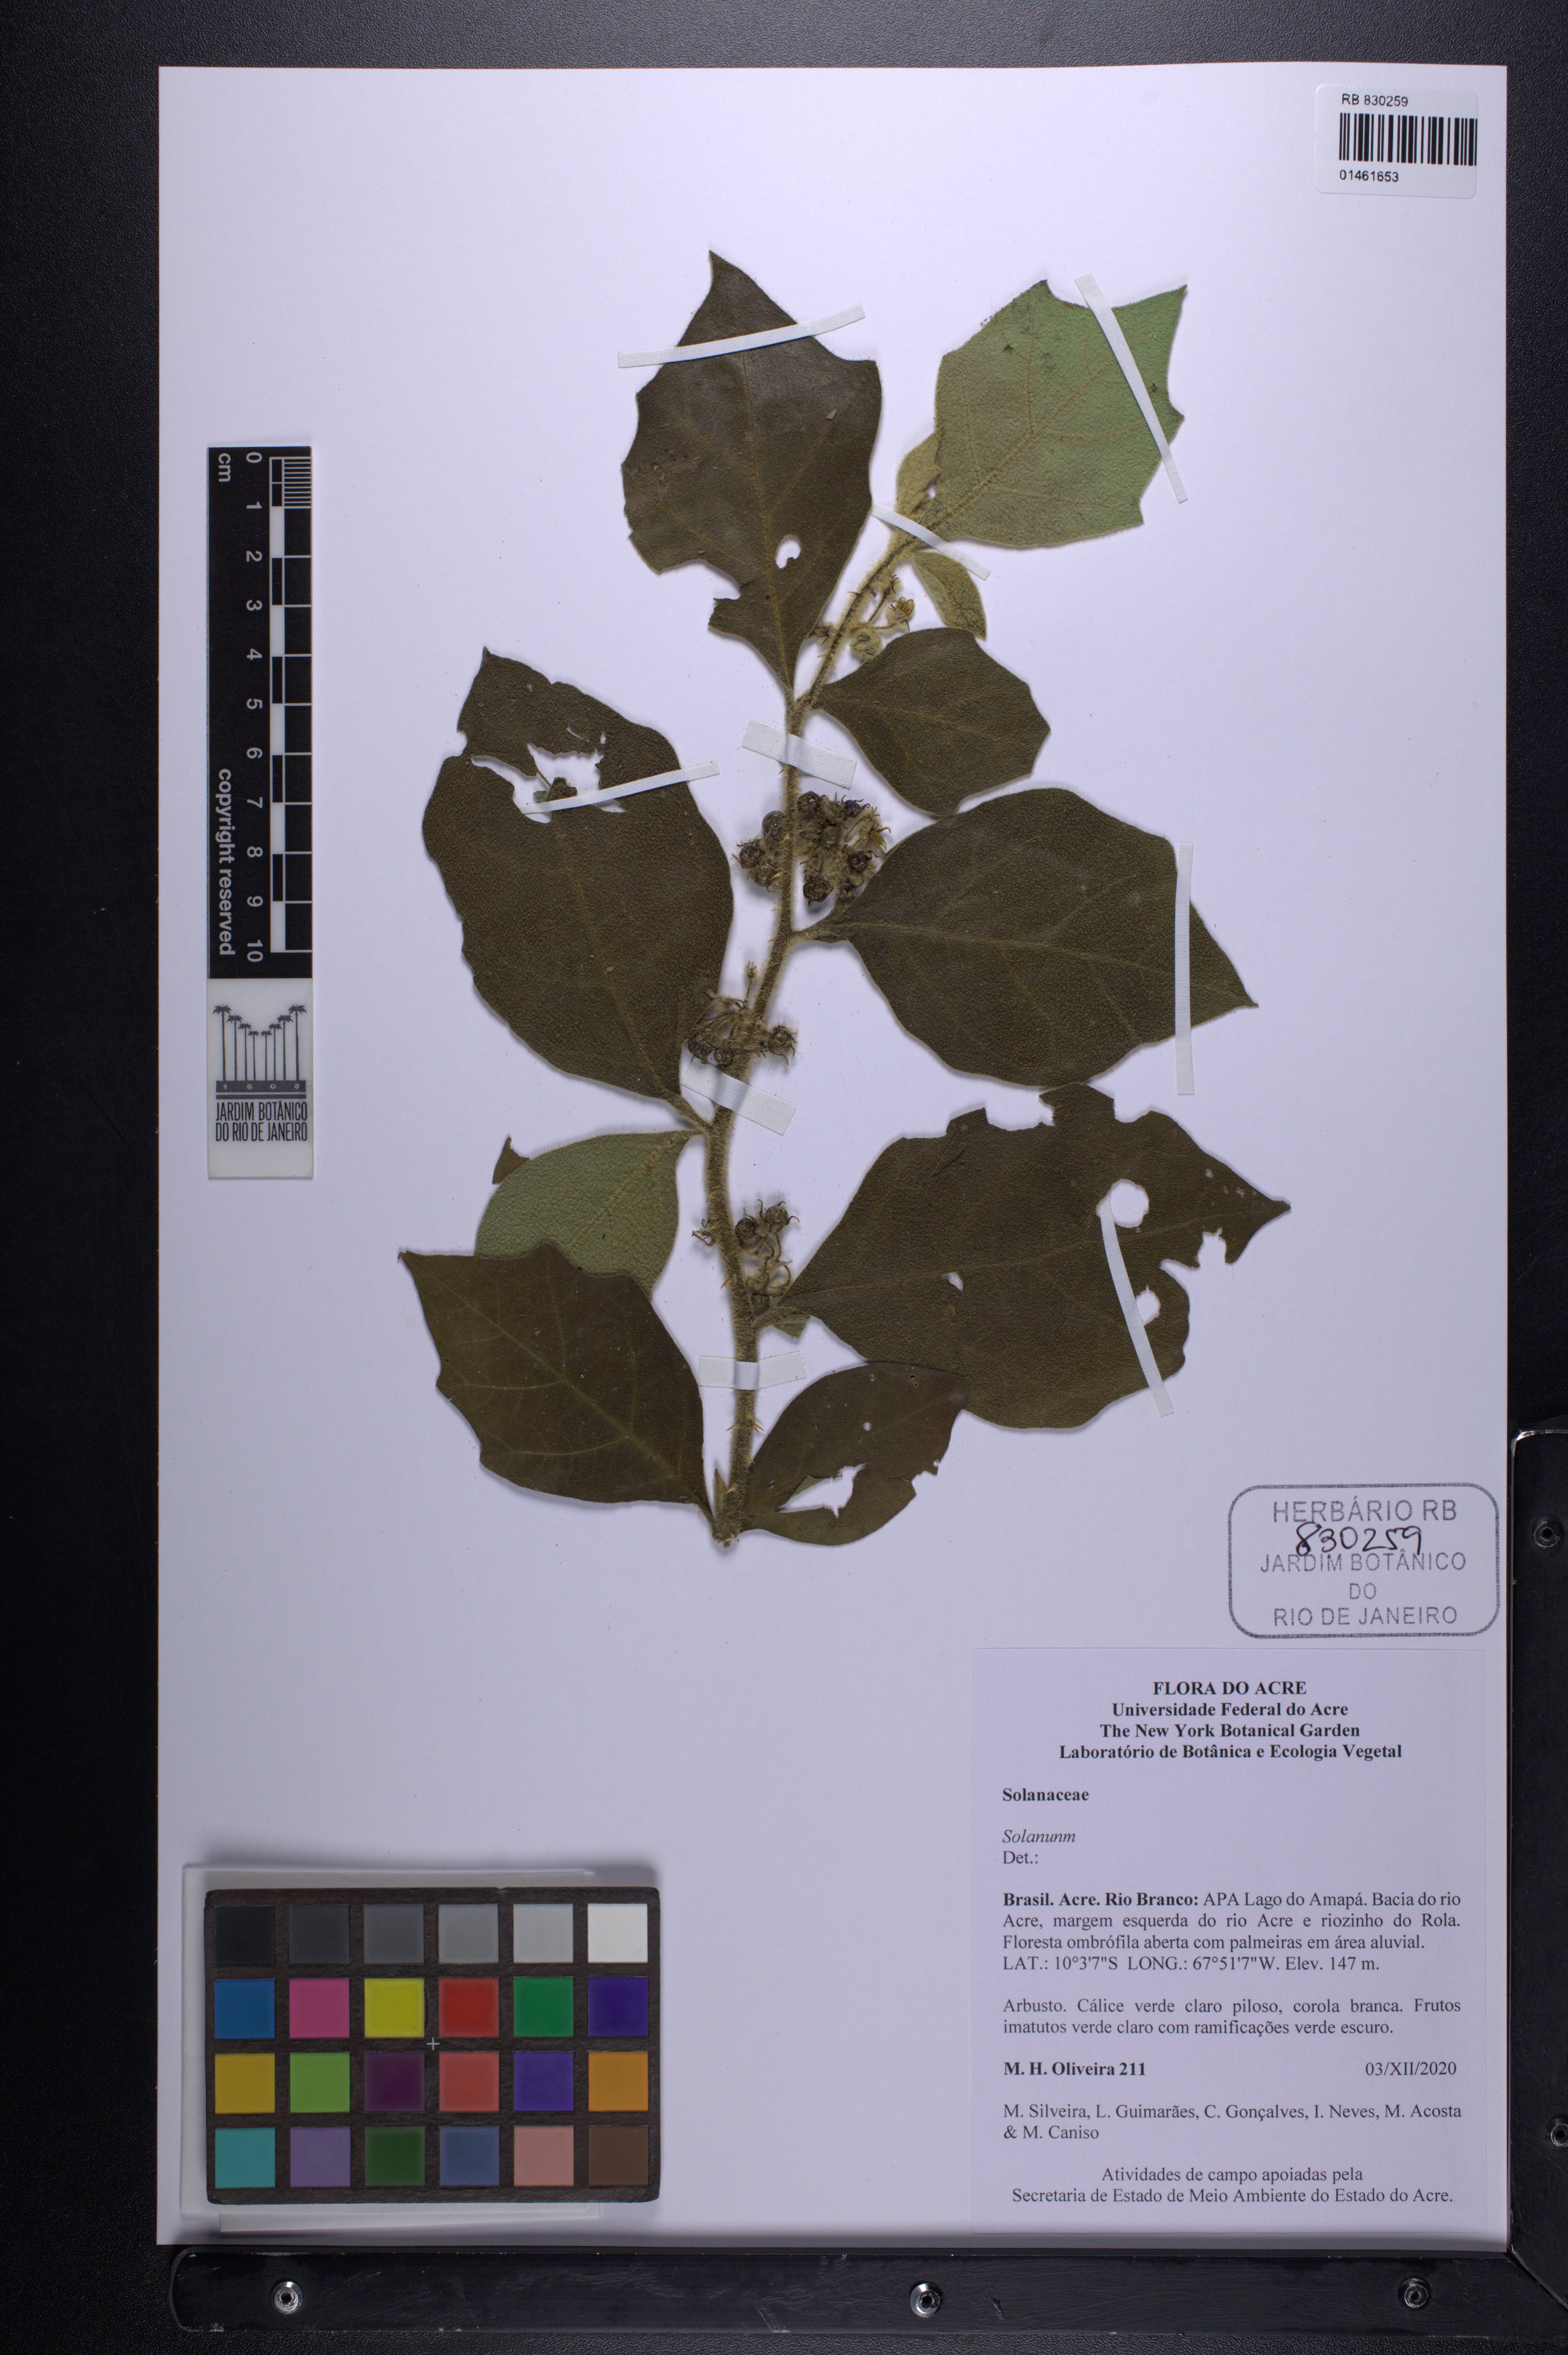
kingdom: Plantae
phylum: Tracheophyta
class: Magnoliopsida
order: Solanales
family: Solanaceae
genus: Solanum
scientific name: Solanum
